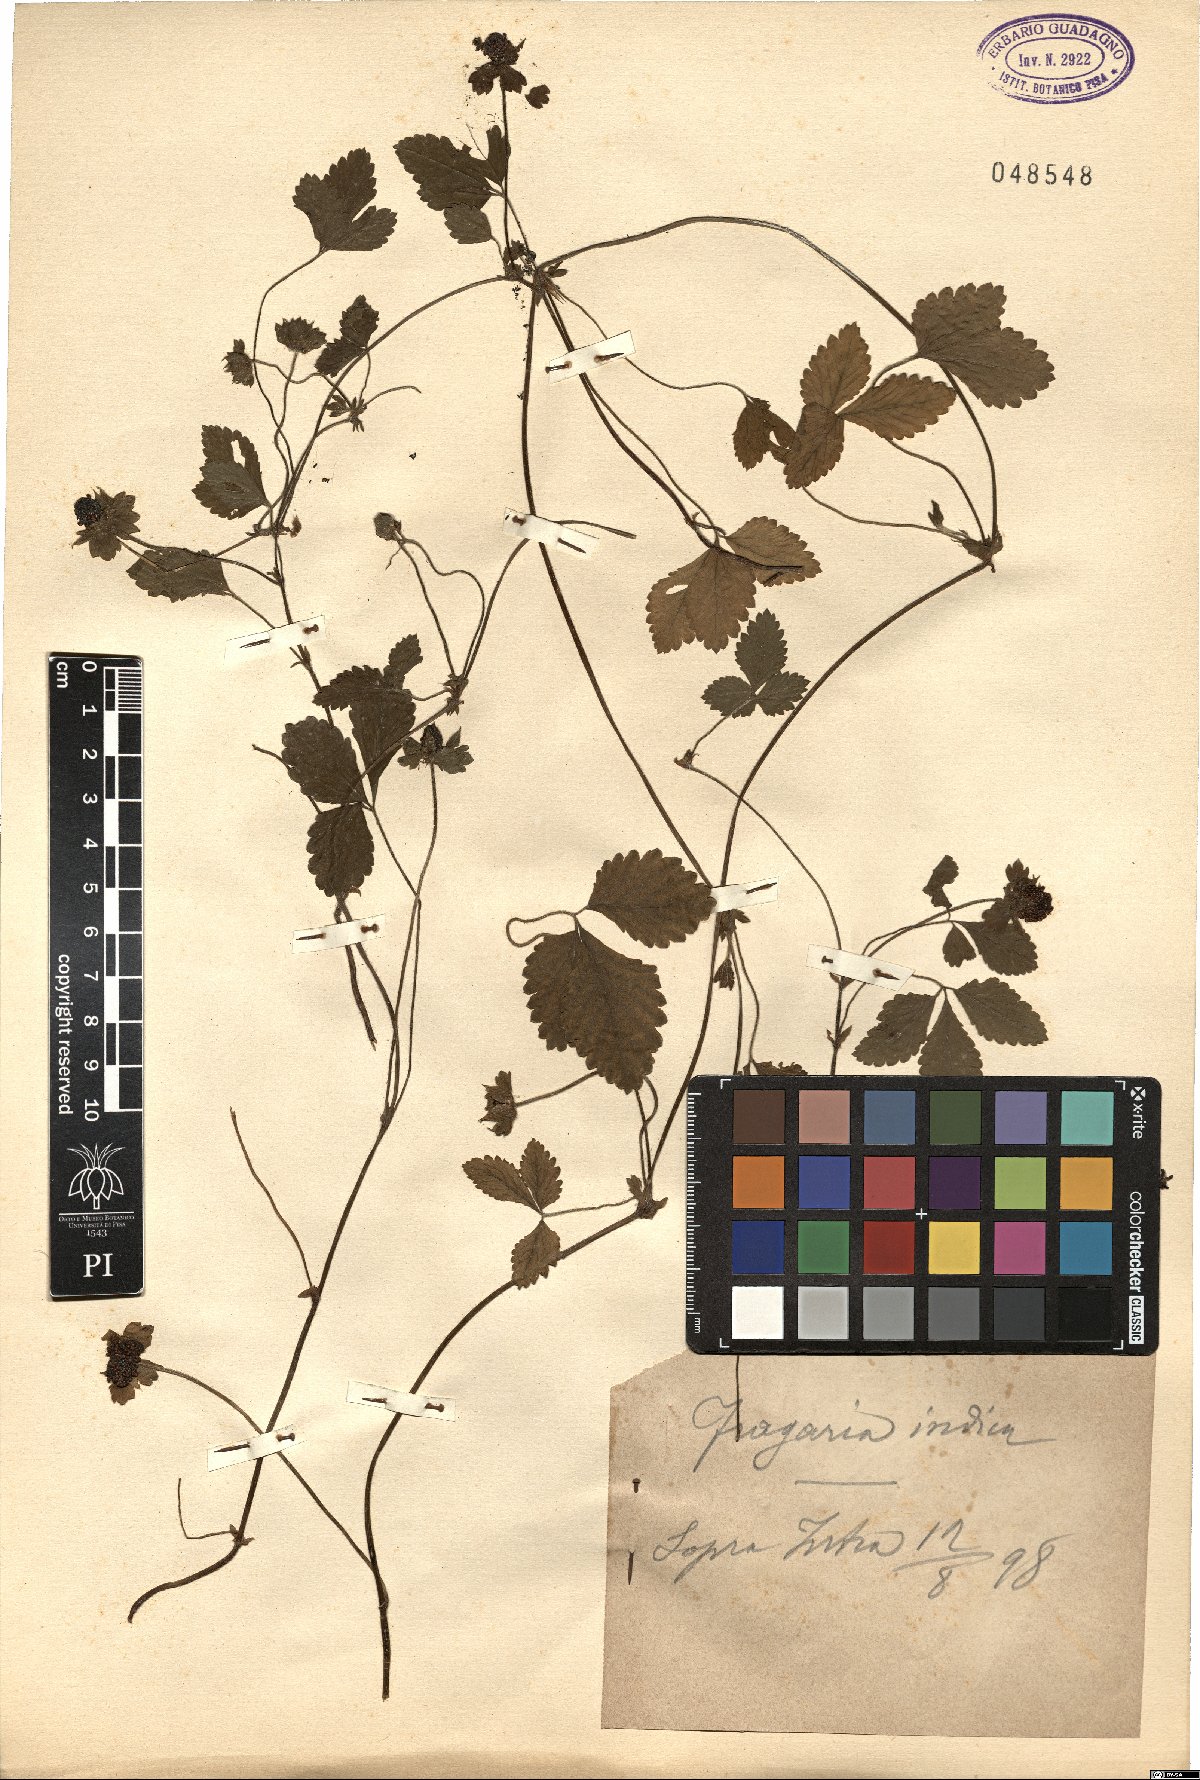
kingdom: Plantae
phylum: Tracheophyta
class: Magnoliopsida
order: Rosales
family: Rosaceae
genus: Potentilla
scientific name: Potentilla indica
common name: Yellow-flowered strawberry
